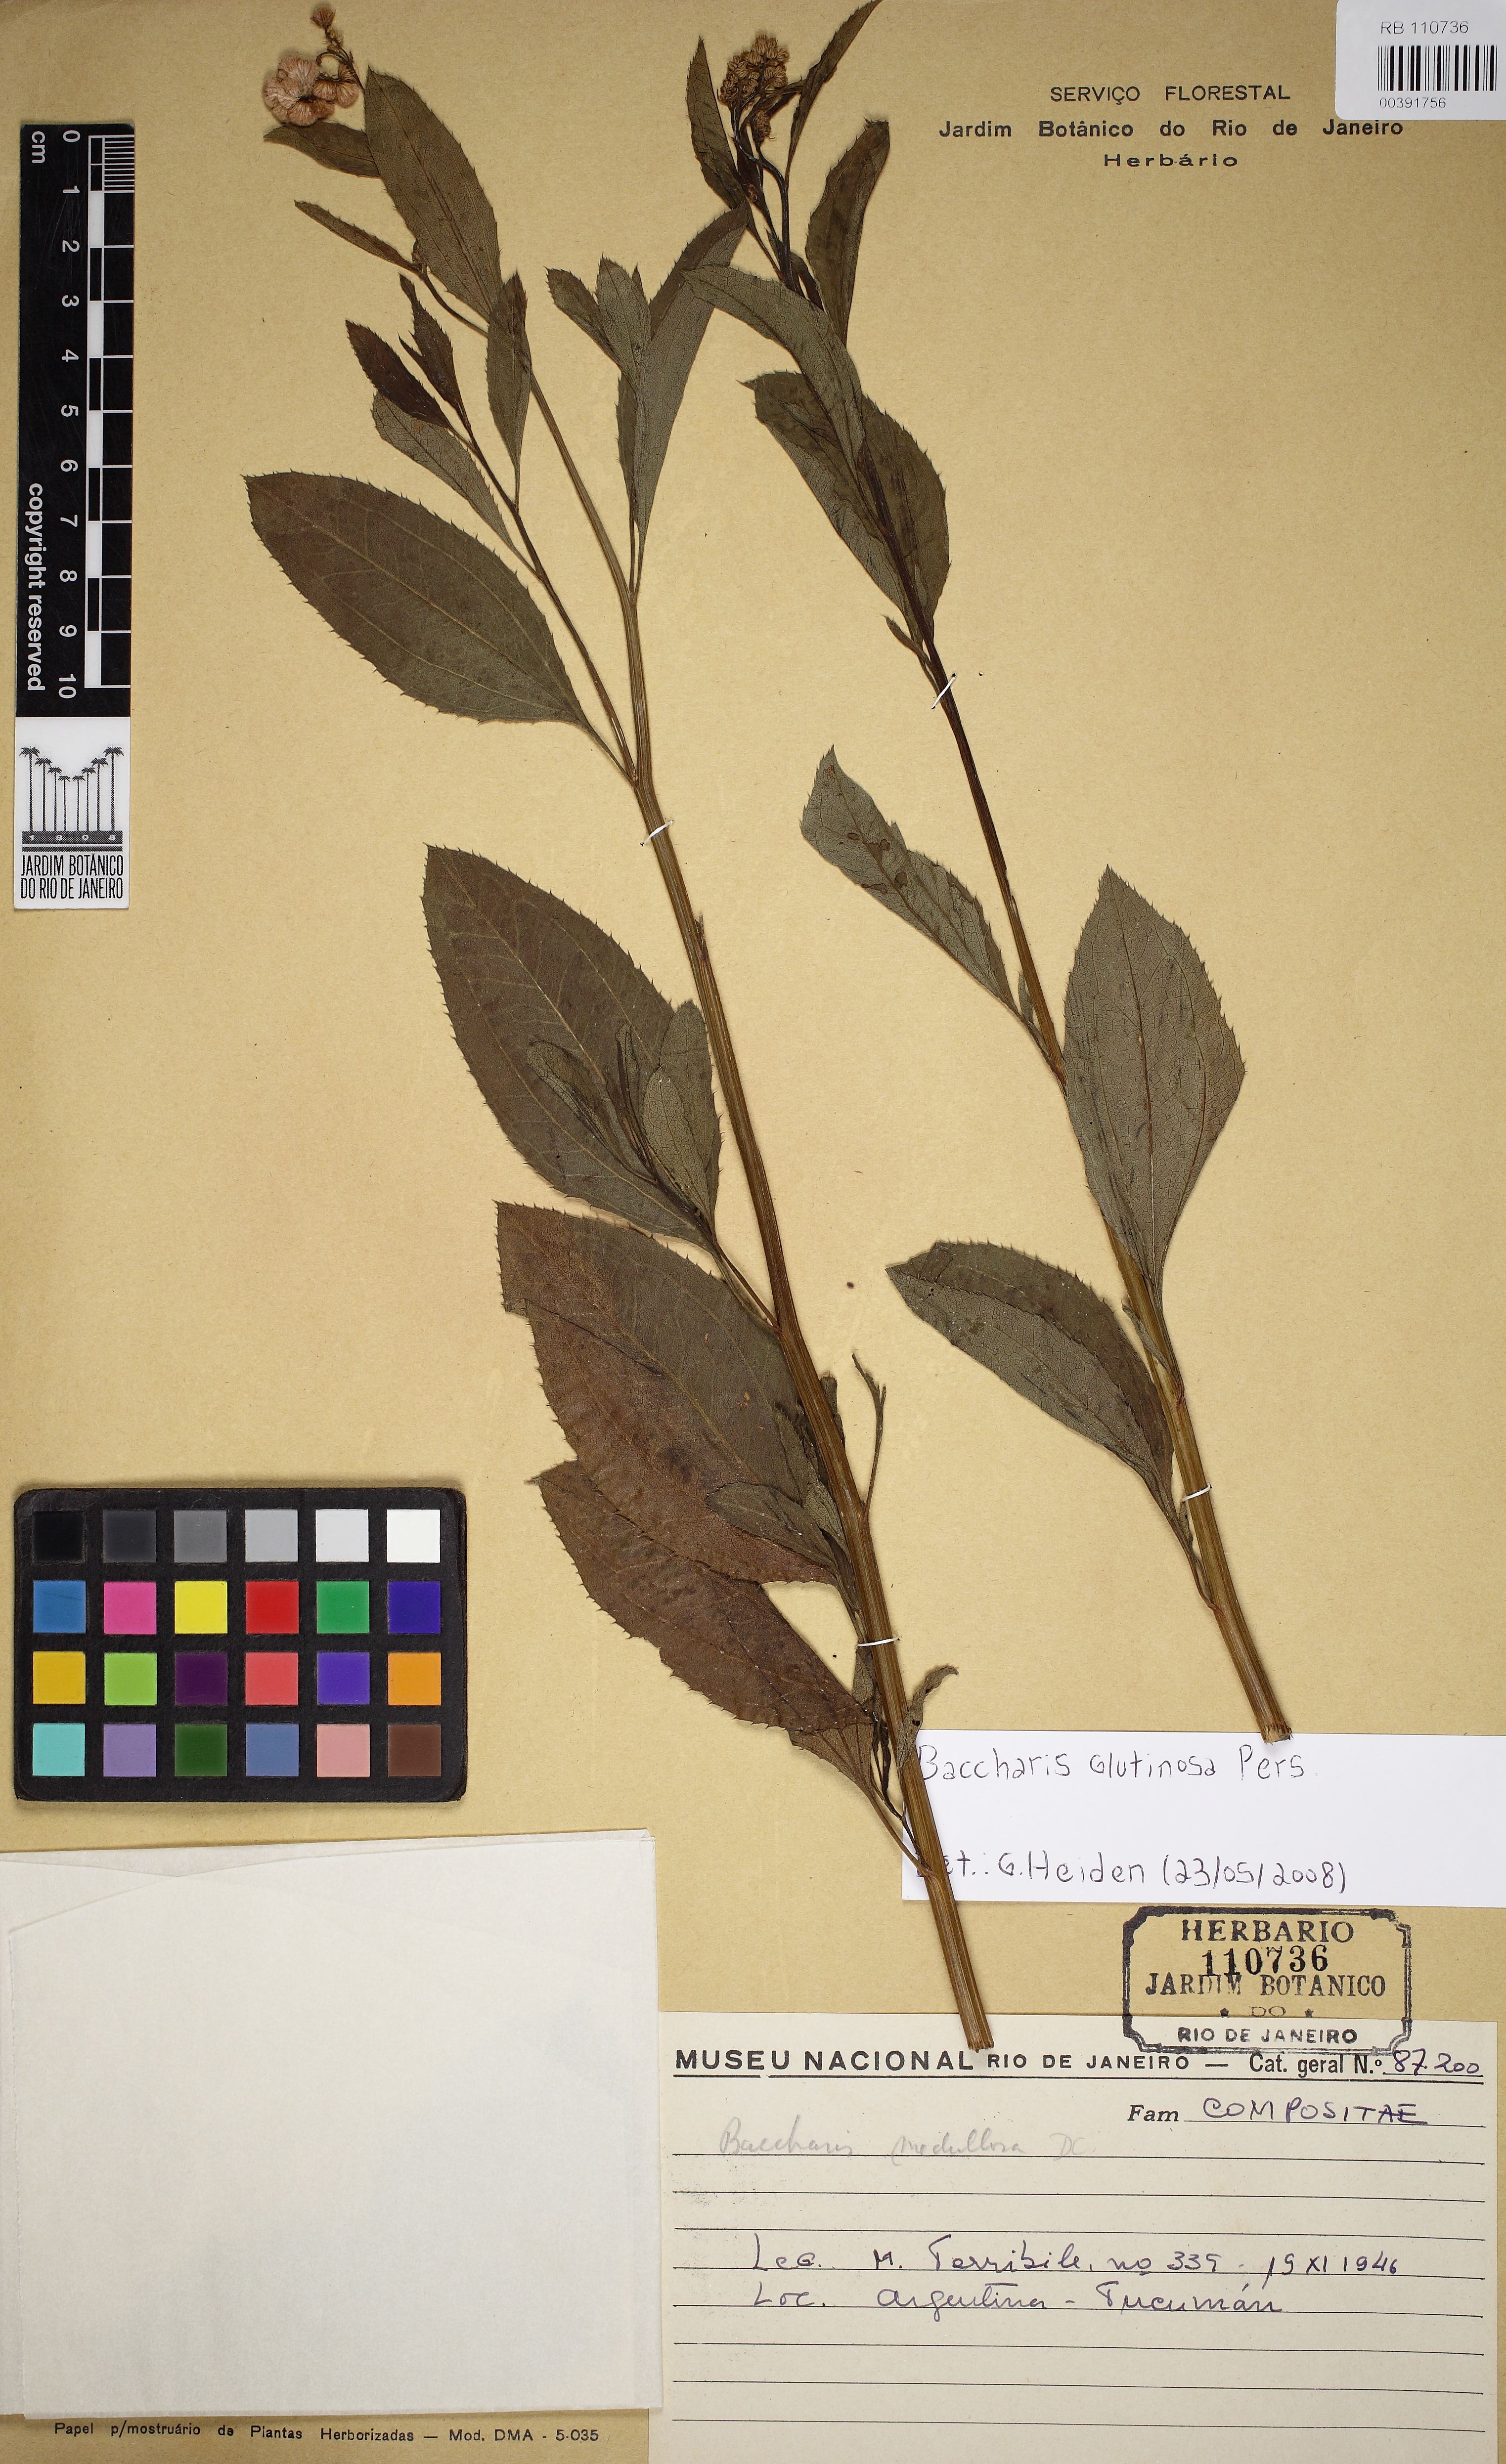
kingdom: Plantae
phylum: Tracheophyta
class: Magnoliopsida
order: Asterales
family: Asteraceae
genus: Baccharis
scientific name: Baccharis glutinosa
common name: Saltmarsh baccharis
